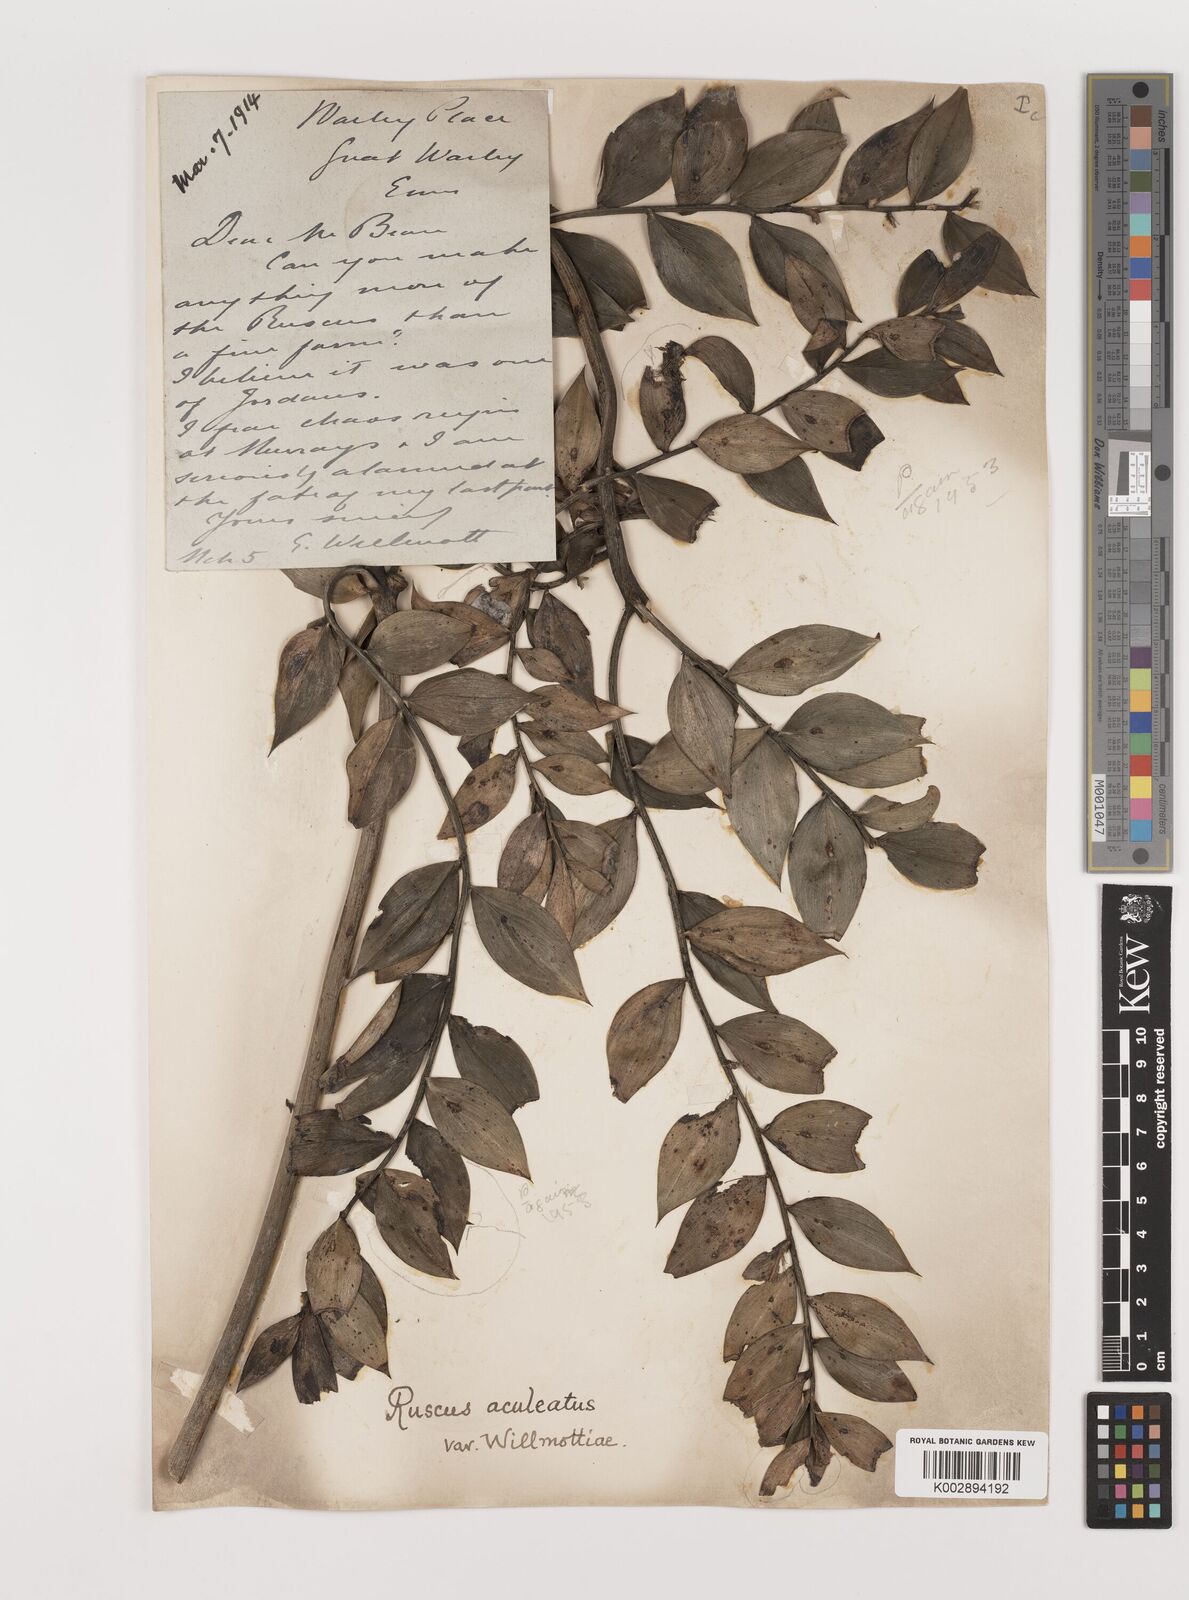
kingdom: Plantae
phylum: Tracheophyta
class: Liliopsida
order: Asparagales
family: Asparagaceae
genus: Ruscus
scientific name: Ruscus aculeatus
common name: Butcher's-broom
